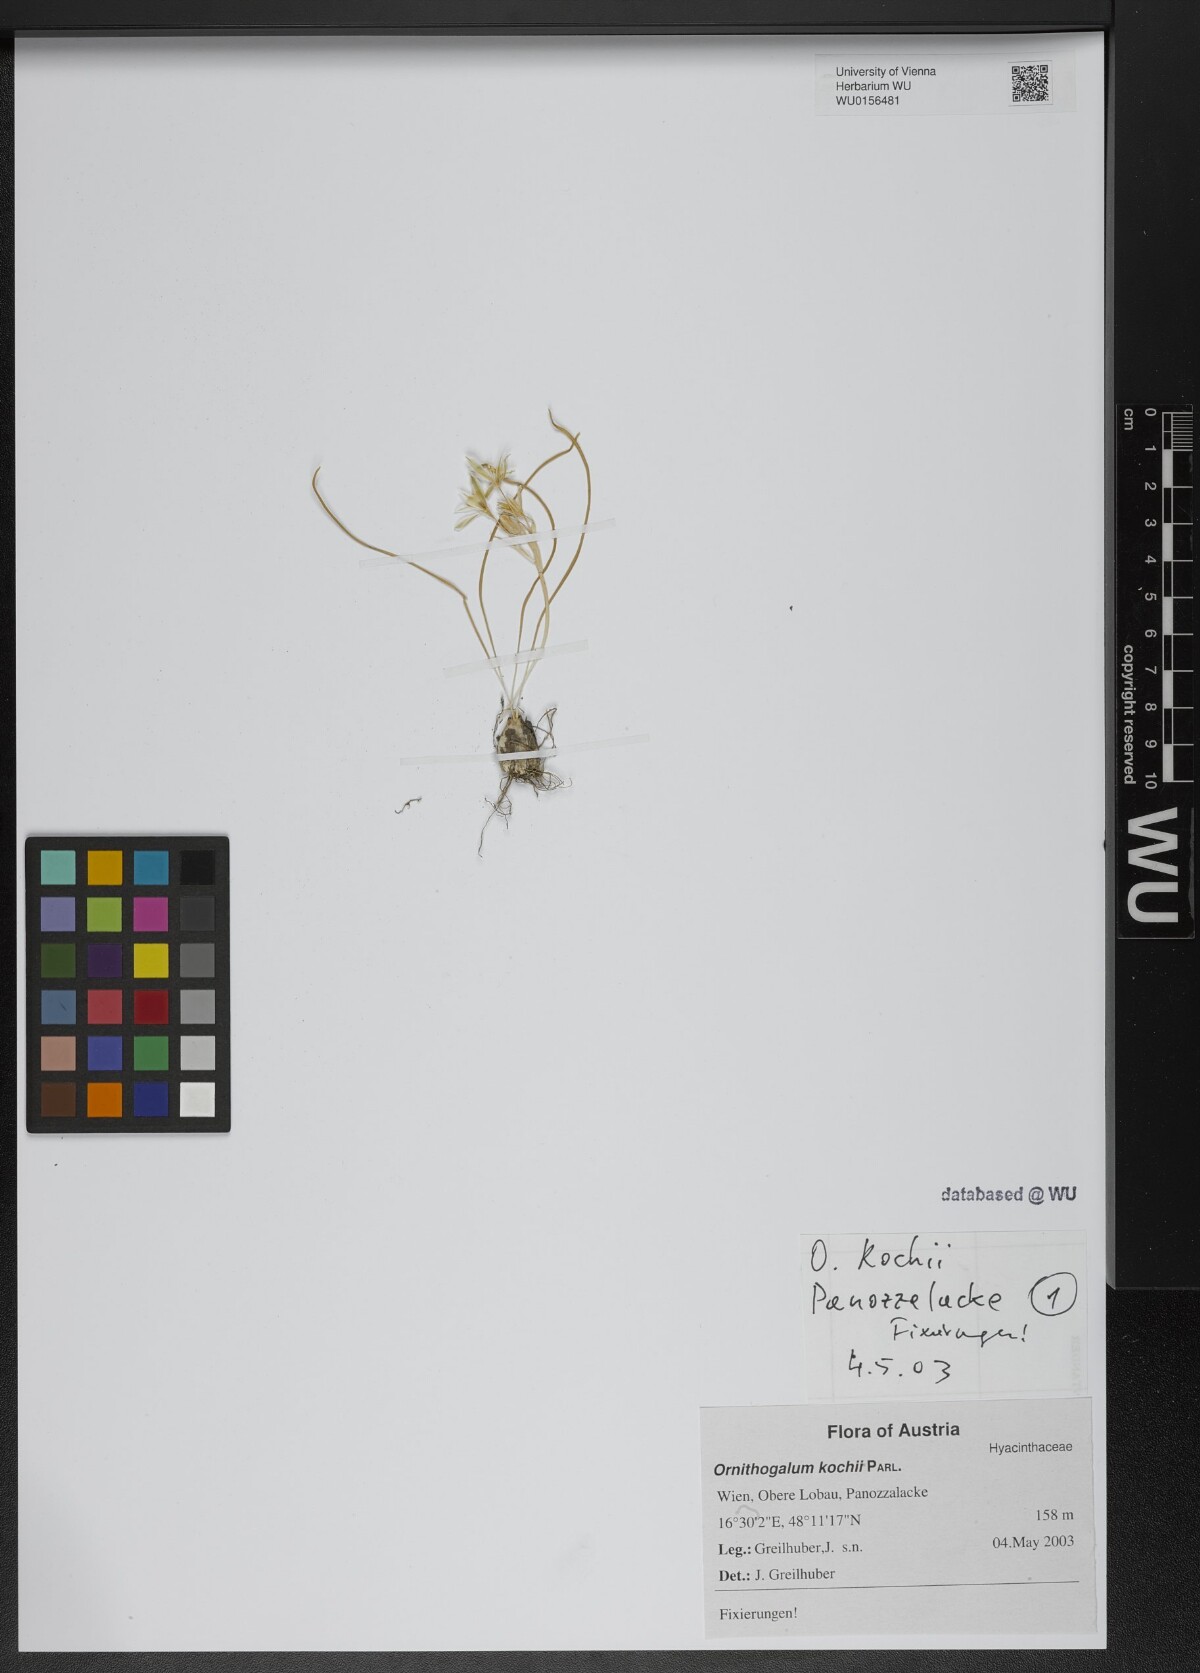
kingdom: Plantae
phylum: Tracheophyta
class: Liliopsida
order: Asparagales
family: Asparagaceae
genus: Ornithogalum
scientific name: Ornithogalum orthophyllum
